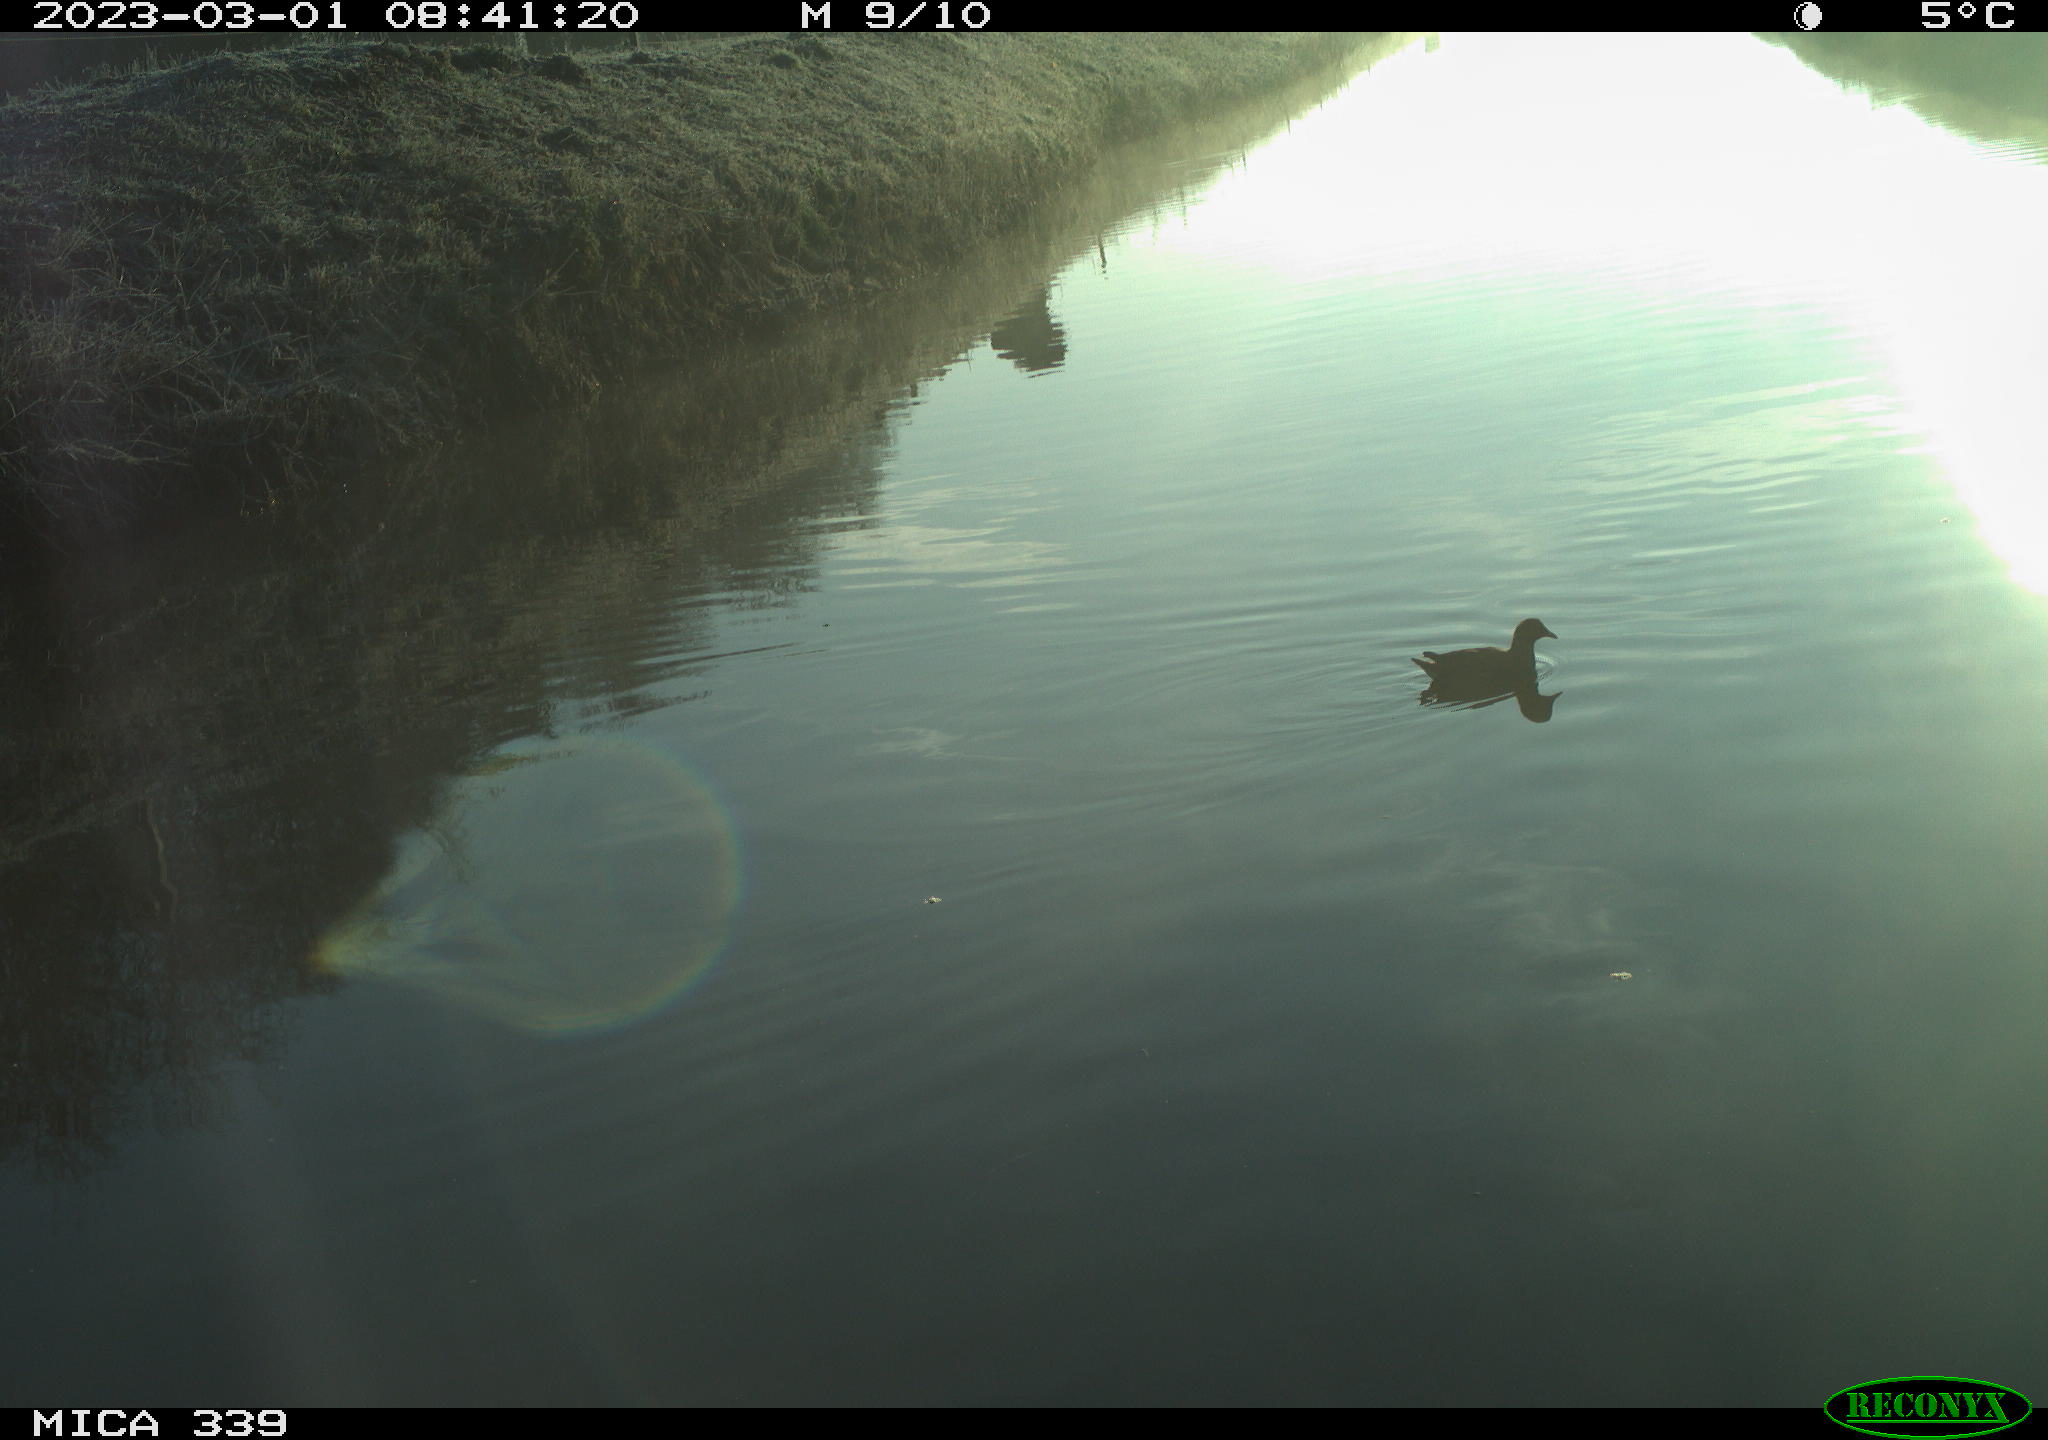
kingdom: Animalia
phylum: Chordata
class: Aves
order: Gruiformes
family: Rallidae
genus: Gallinula
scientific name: Gallinula chloropus
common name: Common moorhen
